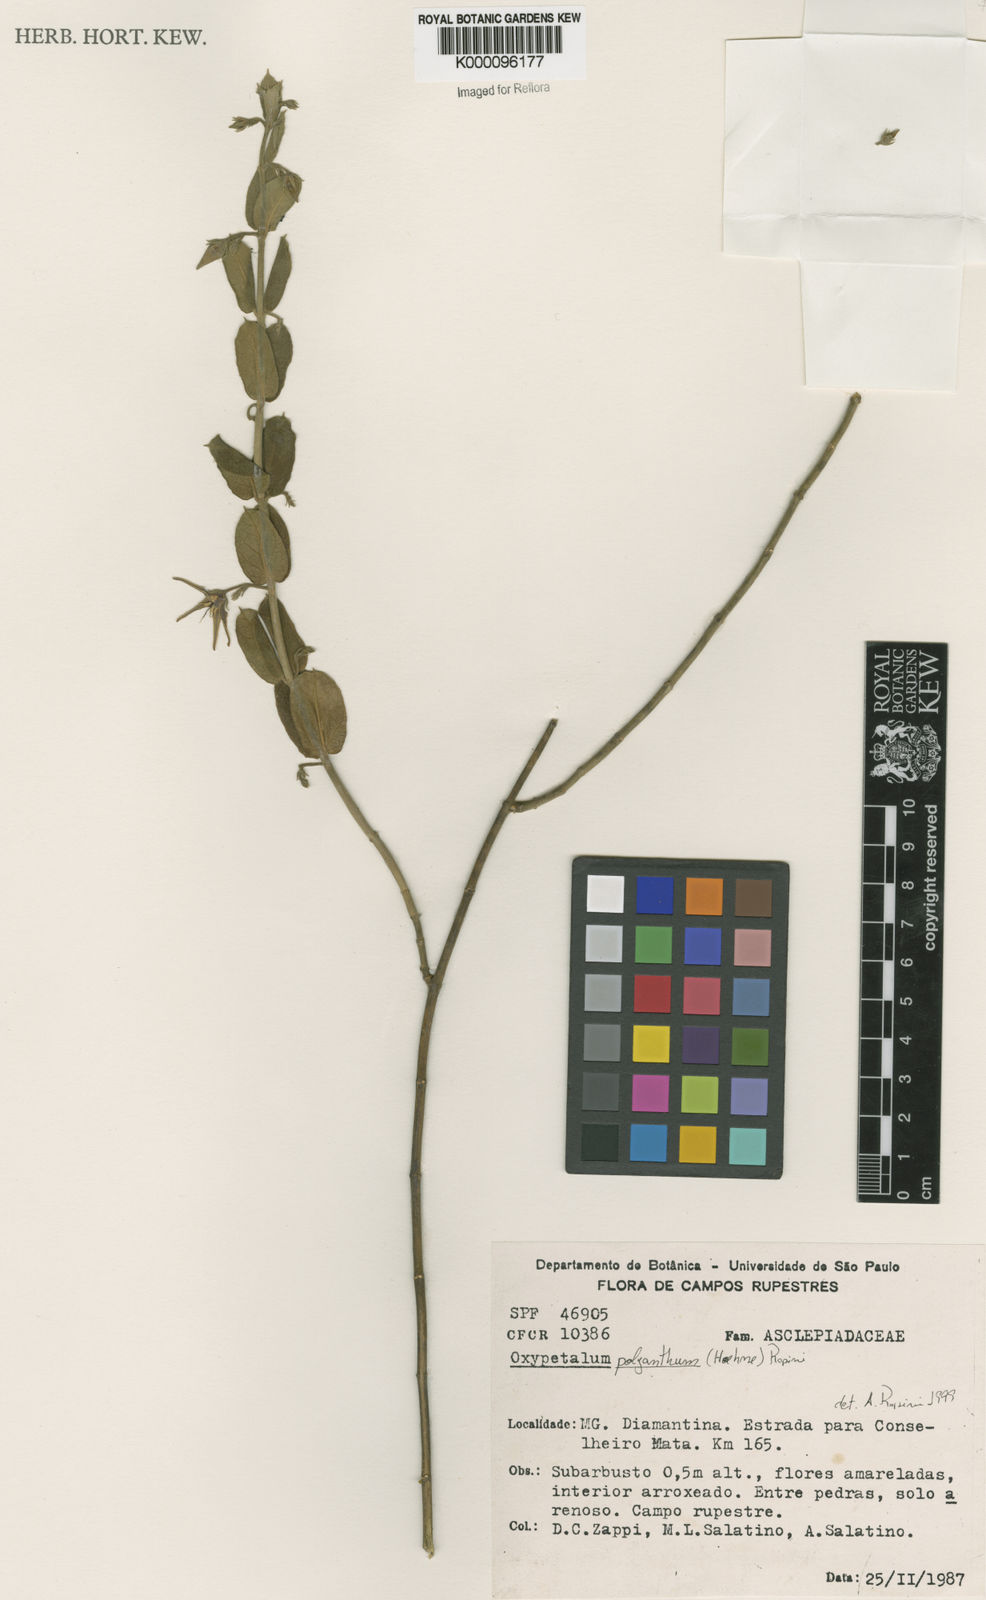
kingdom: Plantae
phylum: Tracheophyta
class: Magnoliopsida
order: Gentianales
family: Apocynaceae
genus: Oxypetalum
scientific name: Oxypetalum polyanthum
